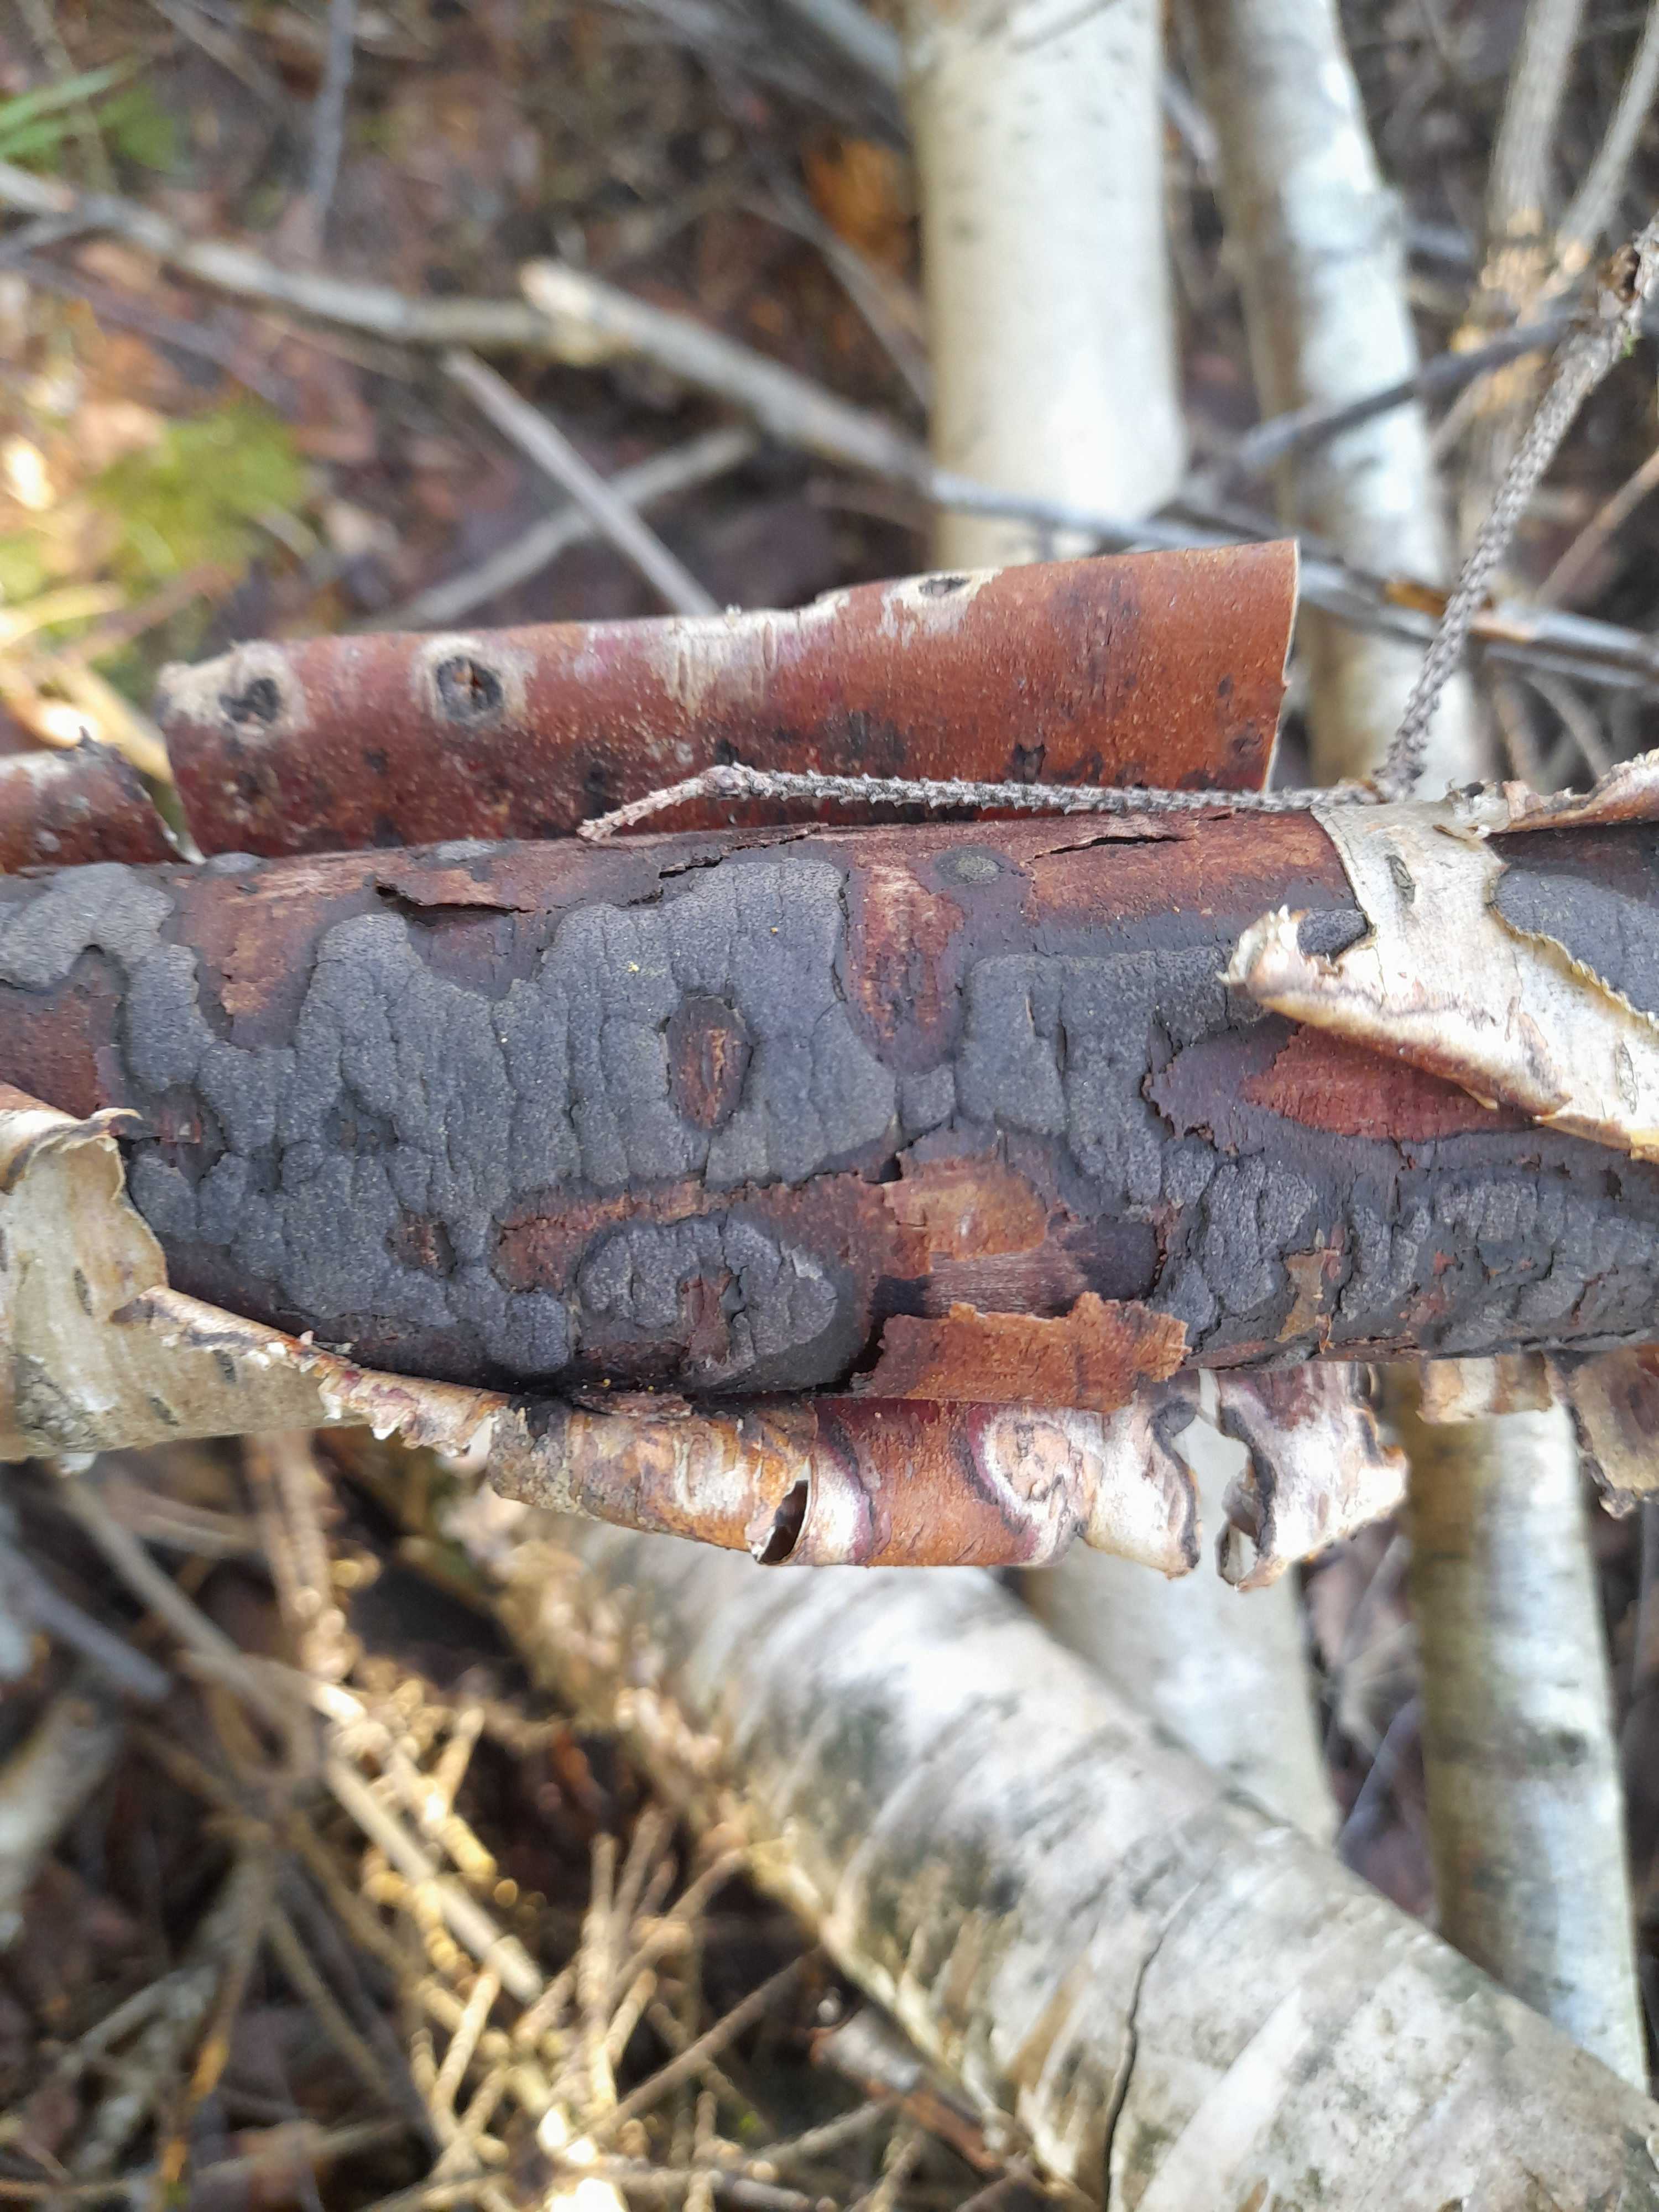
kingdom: Fungi
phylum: Ascomycota
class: Sordariomycetes
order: Xylariales
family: Diatrypaceae
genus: Diatrype
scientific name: Diatrype
